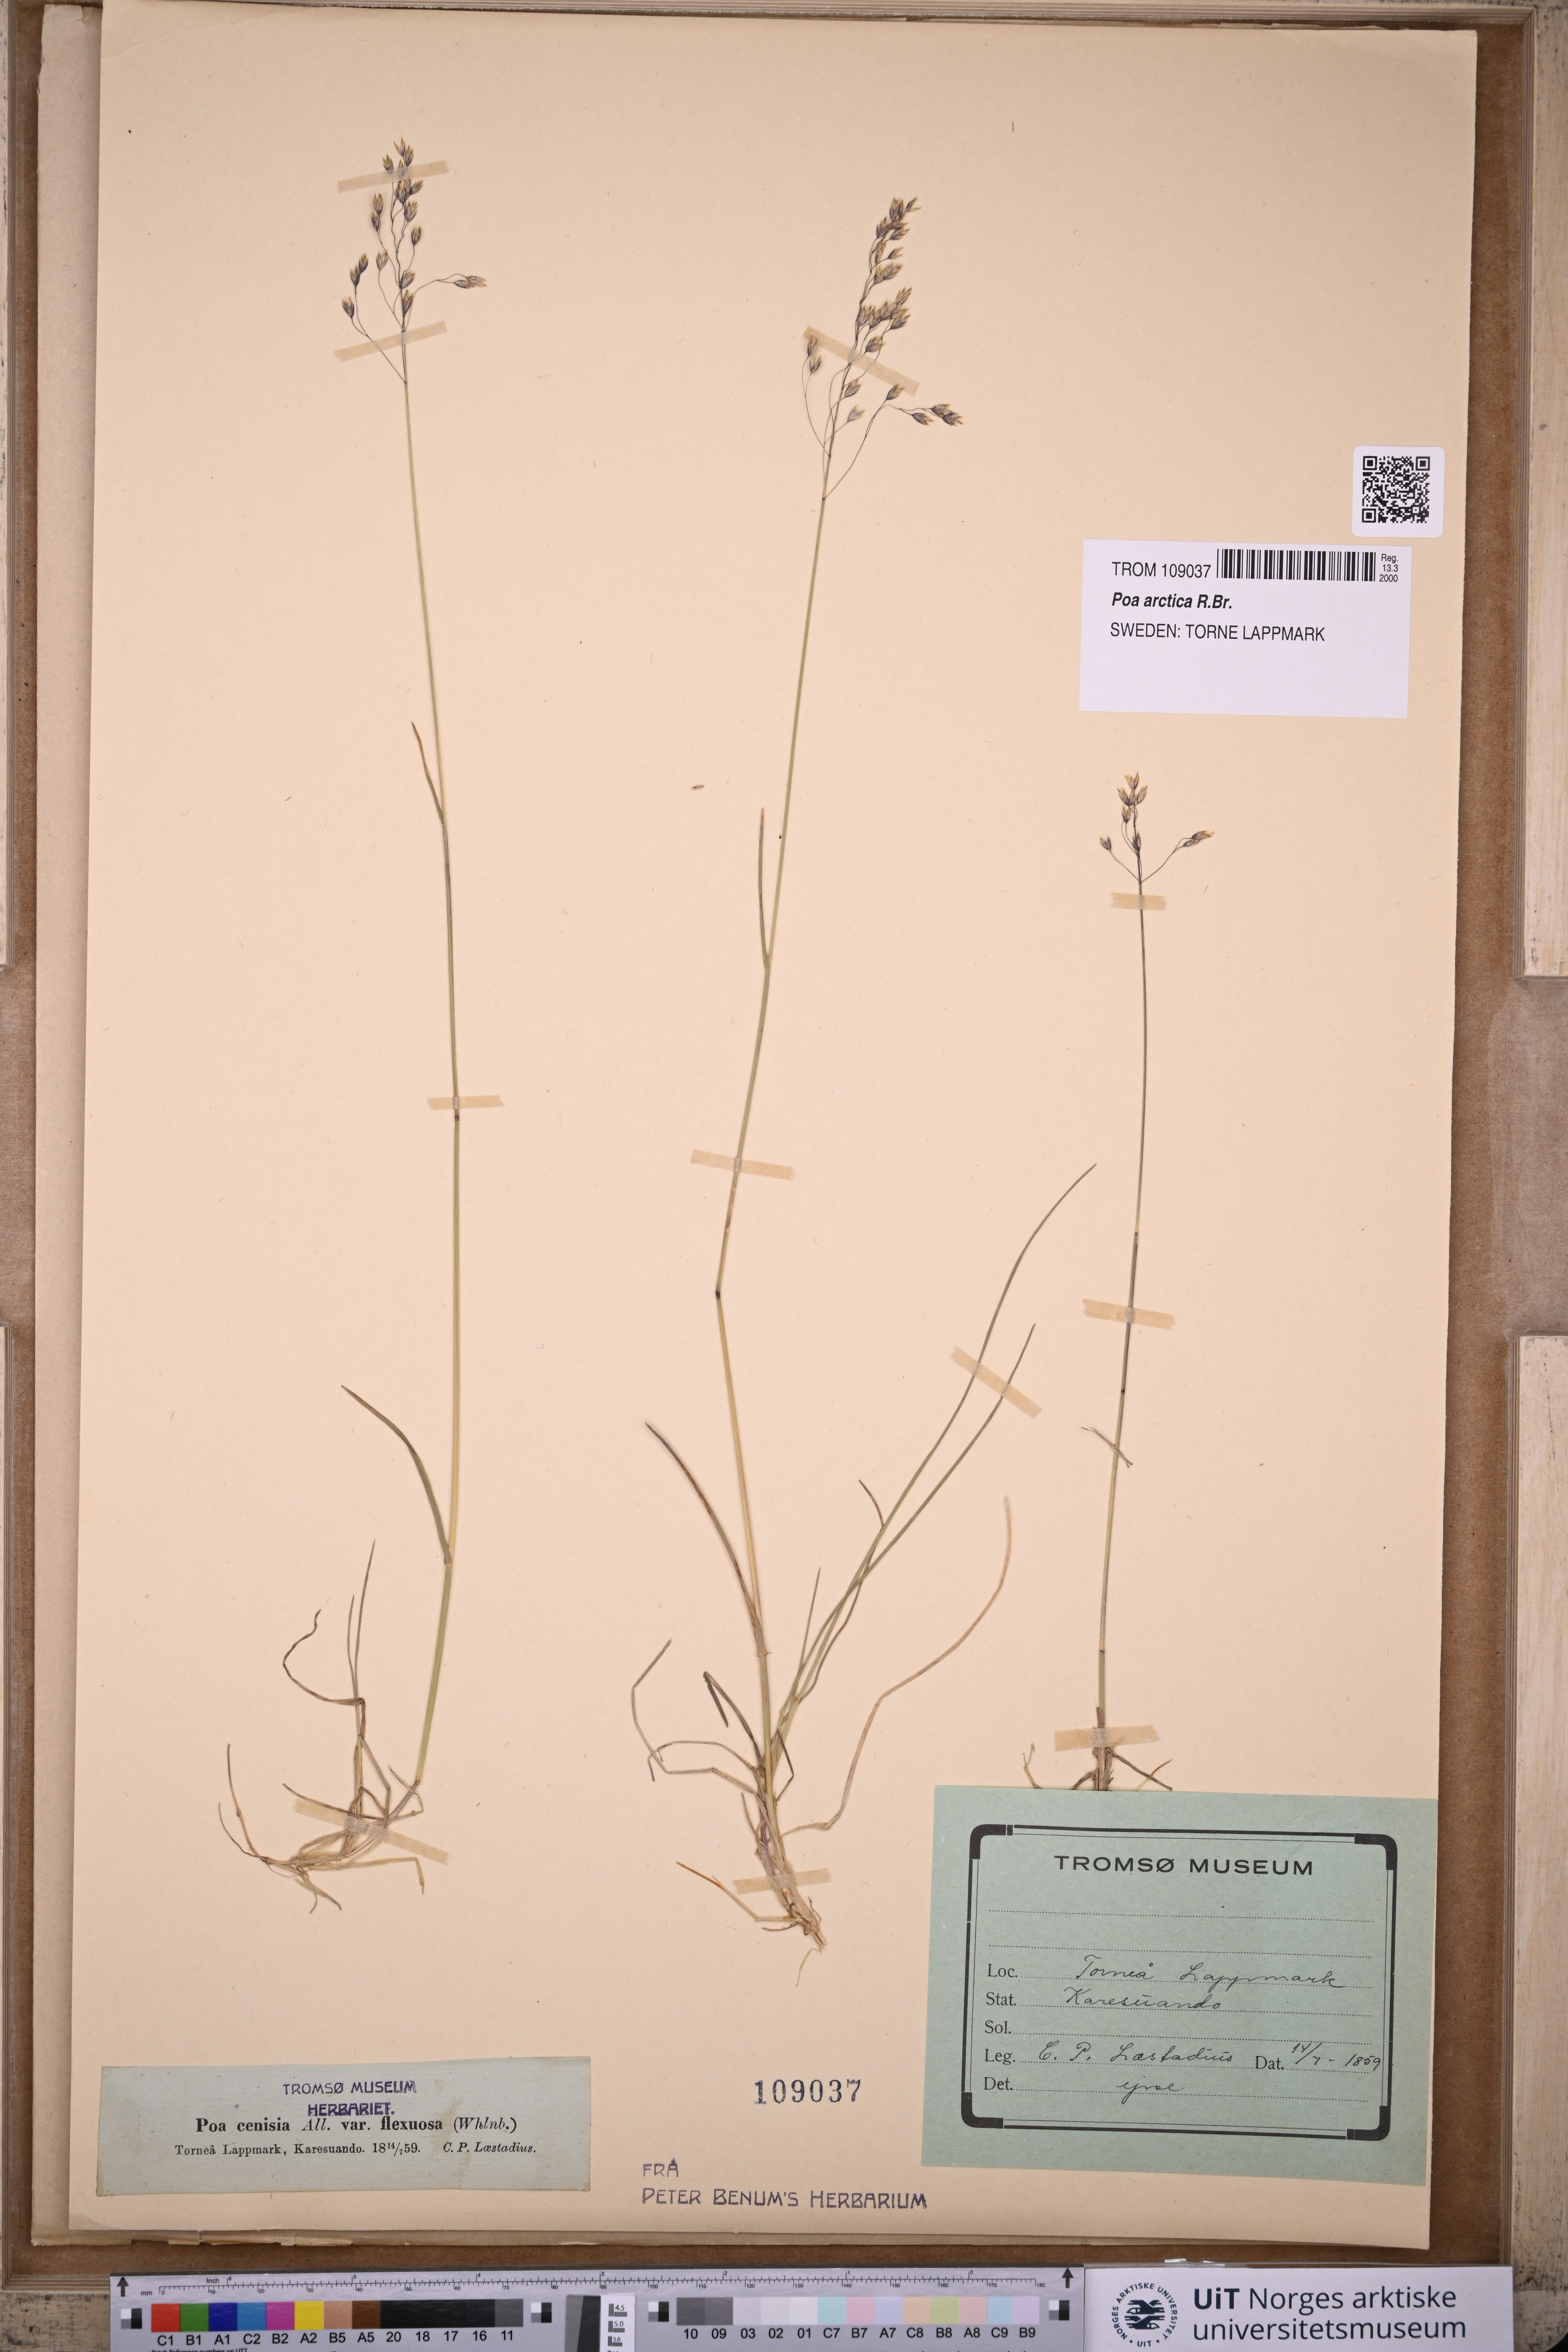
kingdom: Plantae
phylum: Tracheophyta
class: Liliopsida
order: Poales
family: Poaceae
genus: Poa
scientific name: Poa arctica
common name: Arctic bluegrass
